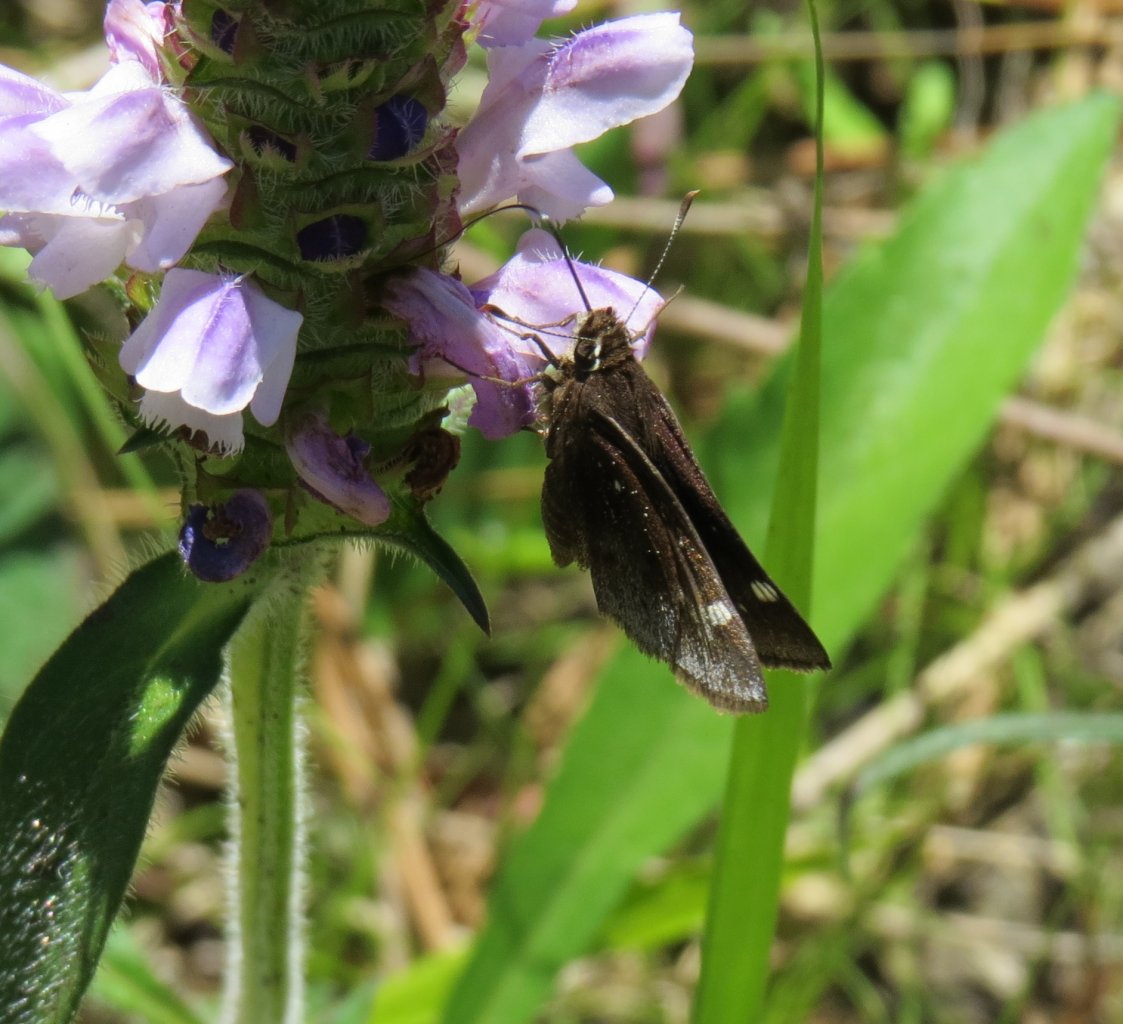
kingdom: Animalia
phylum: Arthropoda
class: Insecta
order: Lepidoptera
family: Hesperiidae
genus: Atrytonopsis
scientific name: Atrytonopsis hianna
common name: Dusted Skipper
